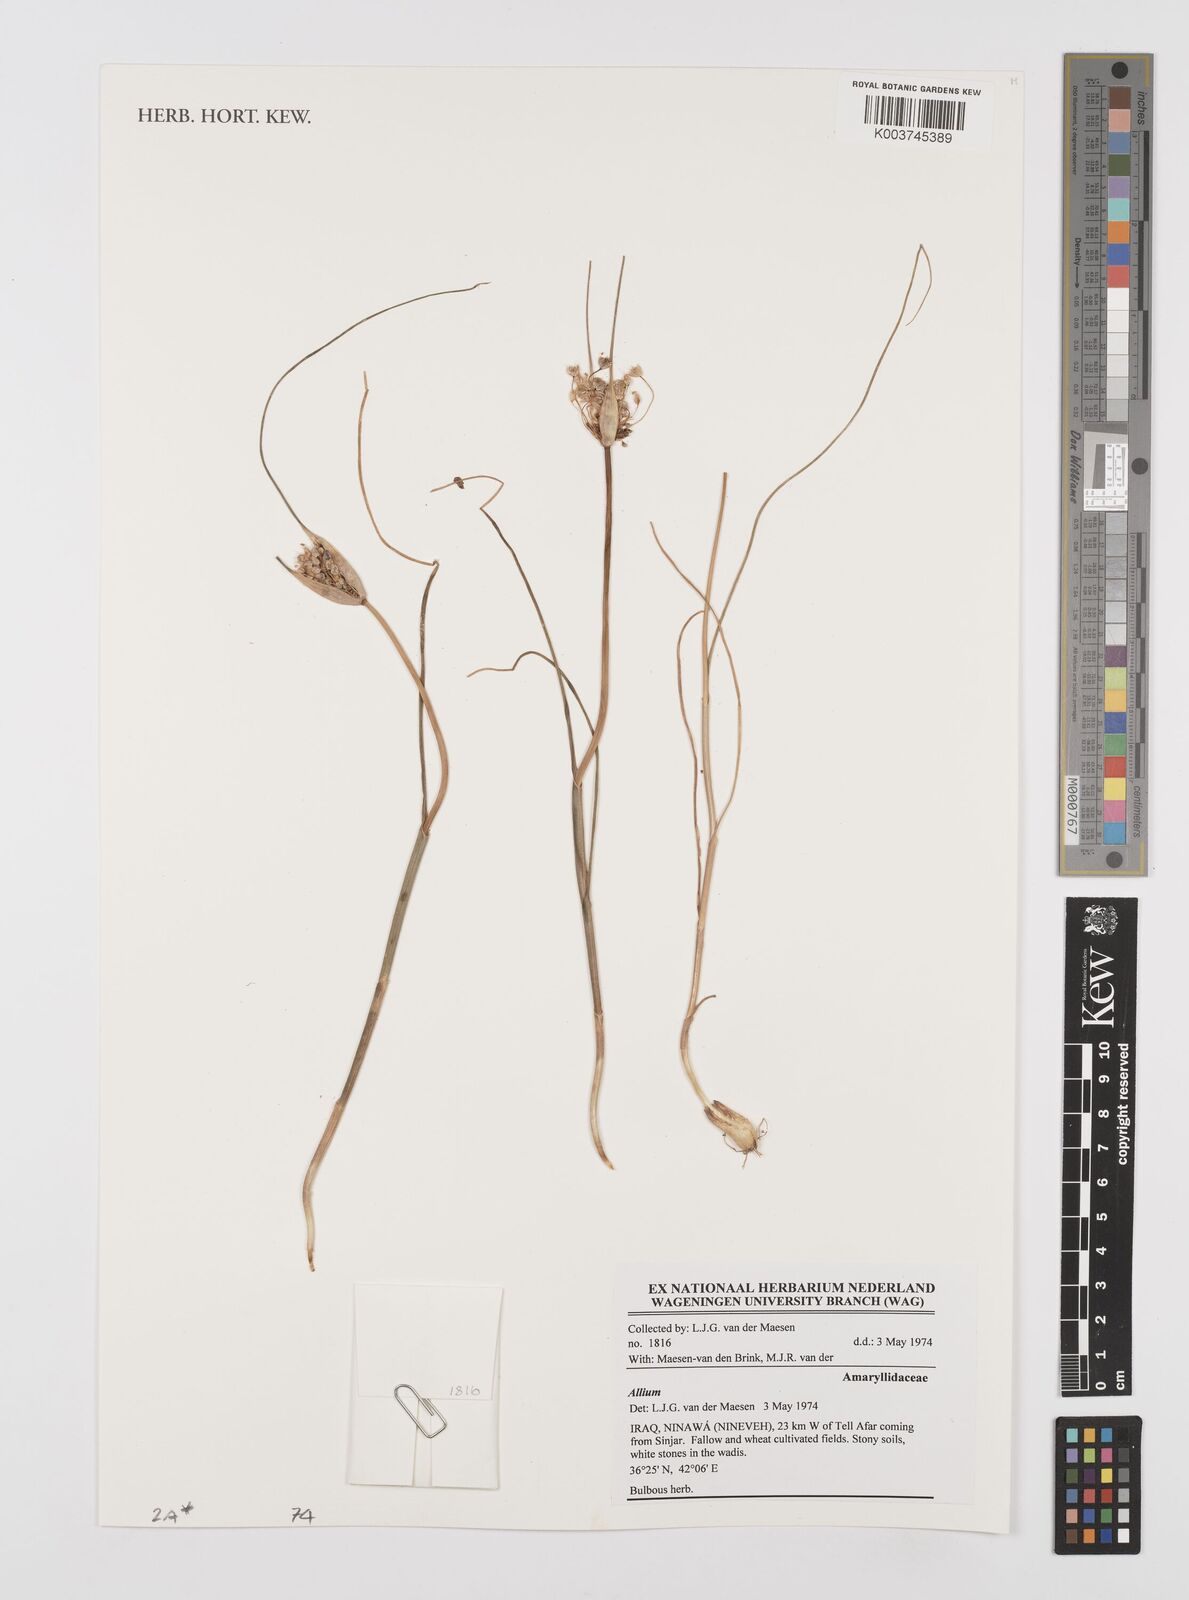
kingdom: Plantae
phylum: Tracheophyta
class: Liliopsida
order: Asparagales
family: Amaryllidaceae
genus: Allium
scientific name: Allium
